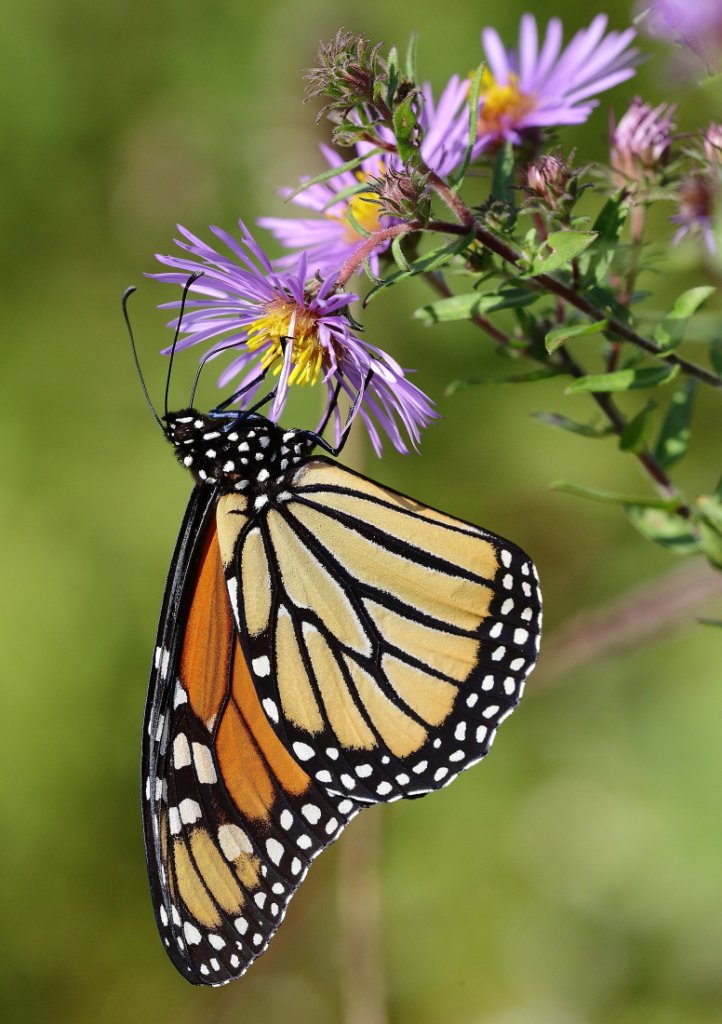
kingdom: Animalia
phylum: Arthropoda
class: Insecta
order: Lepidoptera
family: Nymphalidae
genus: Danaus
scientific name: Danaus plexippus
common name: Monarch
